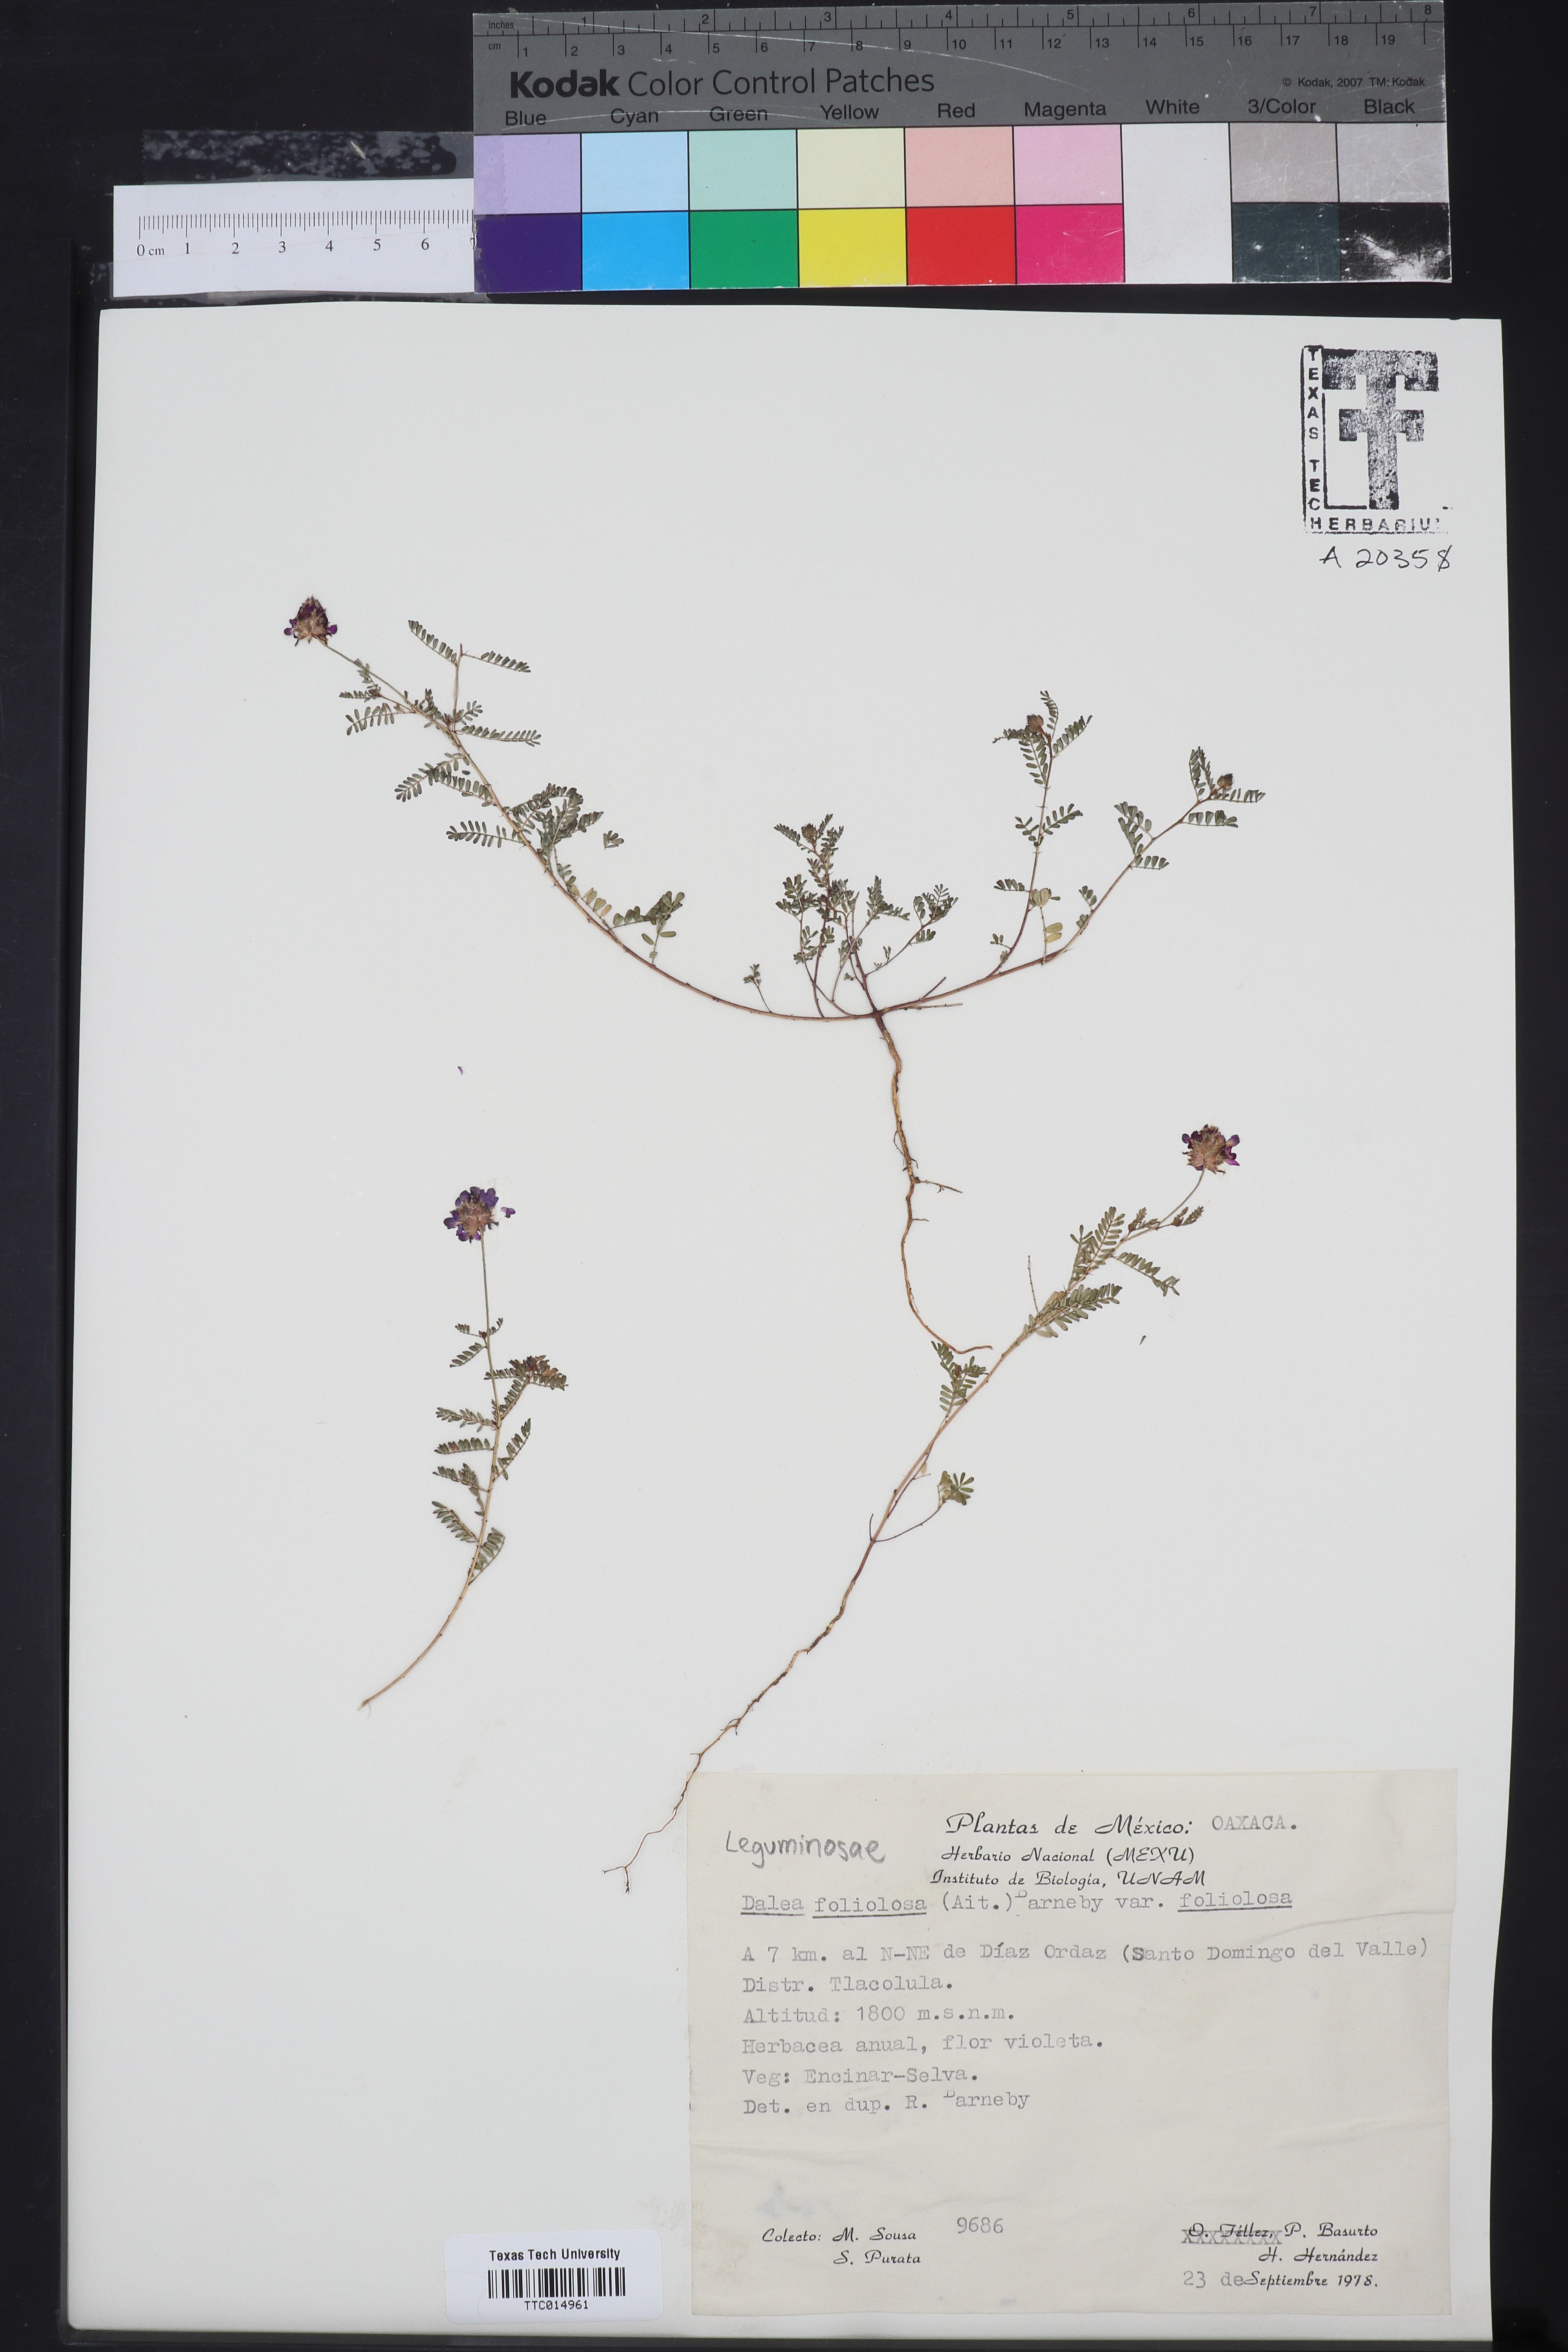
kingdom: Plantae
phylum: Tracheophyta
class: Magnoliopsida
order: Fabales
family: Fabaceae
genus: Dalea
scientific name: Dalea foliolosa
